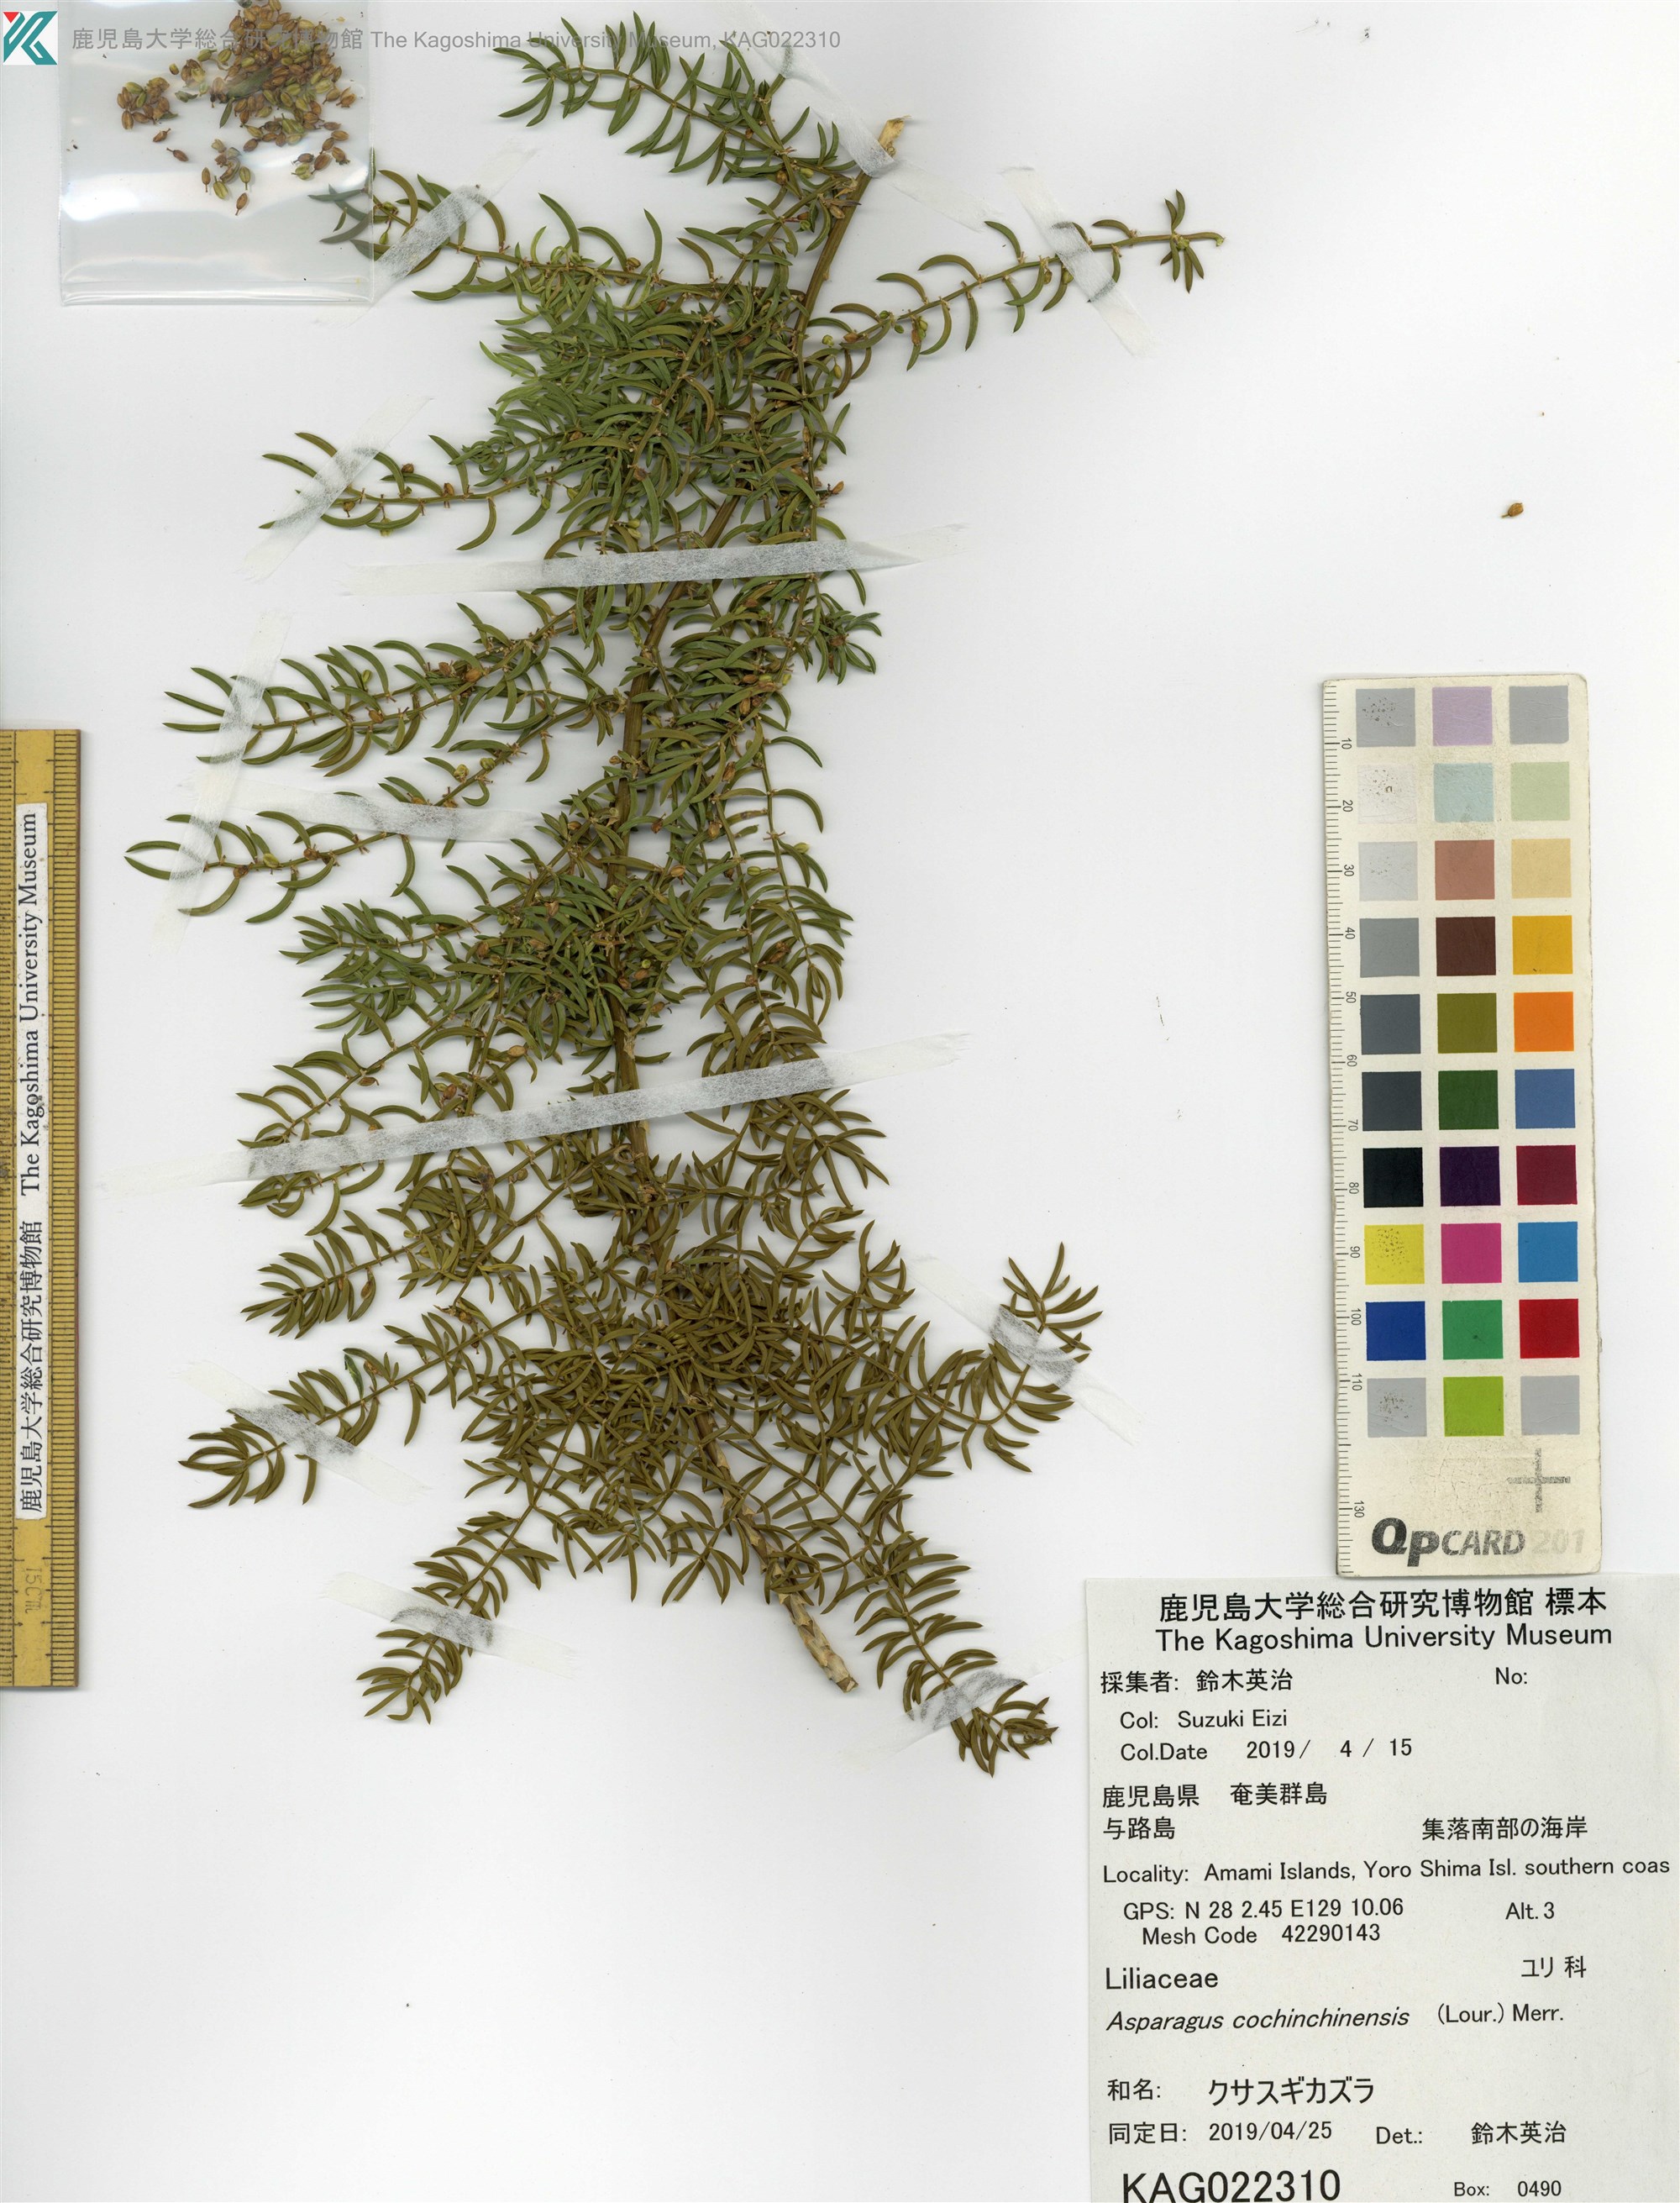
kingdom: Plantae
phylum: Tracheophyta
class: Liliopsida
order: Asparagales
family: Asparagaceae
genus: Asparagus
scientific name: Asparagus cochinchinensis
